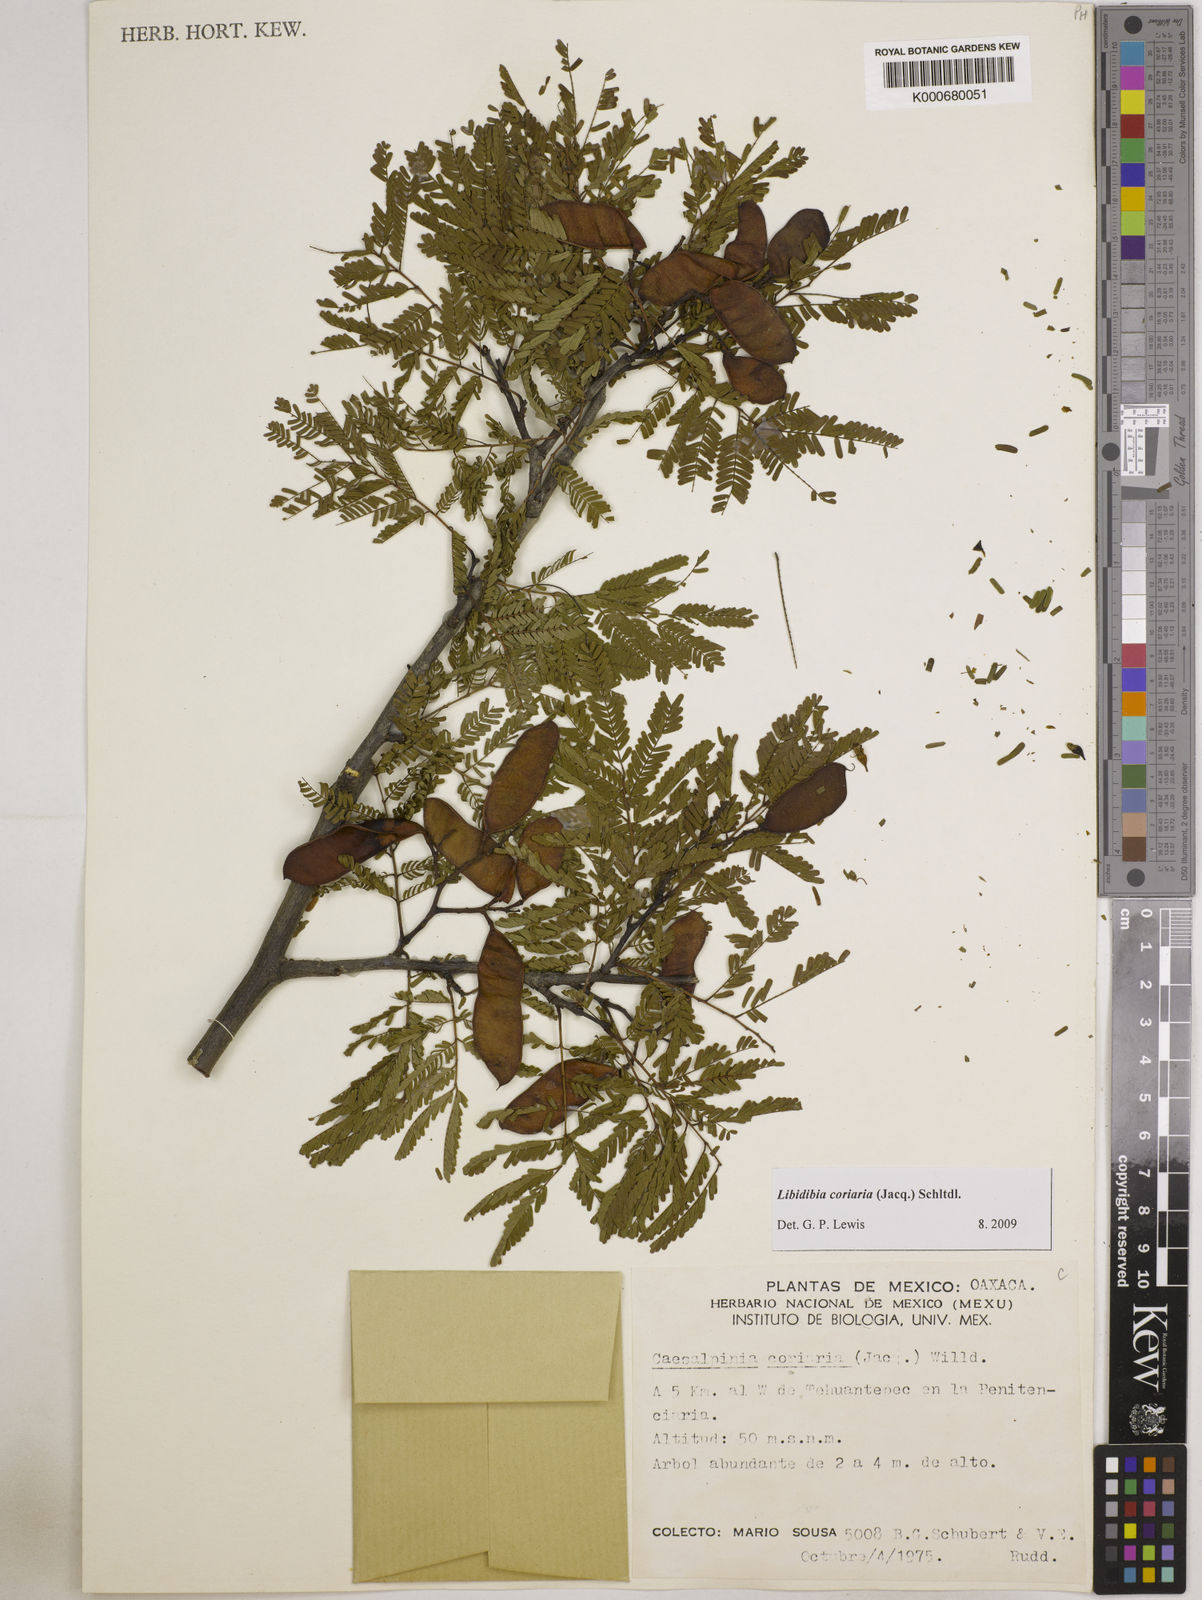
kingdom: Plantae
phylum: Tracheophyta
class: Magnoliopsida
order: Fabales
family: Fabaceae
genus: Libidibia
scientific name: Libidibia coriaria
